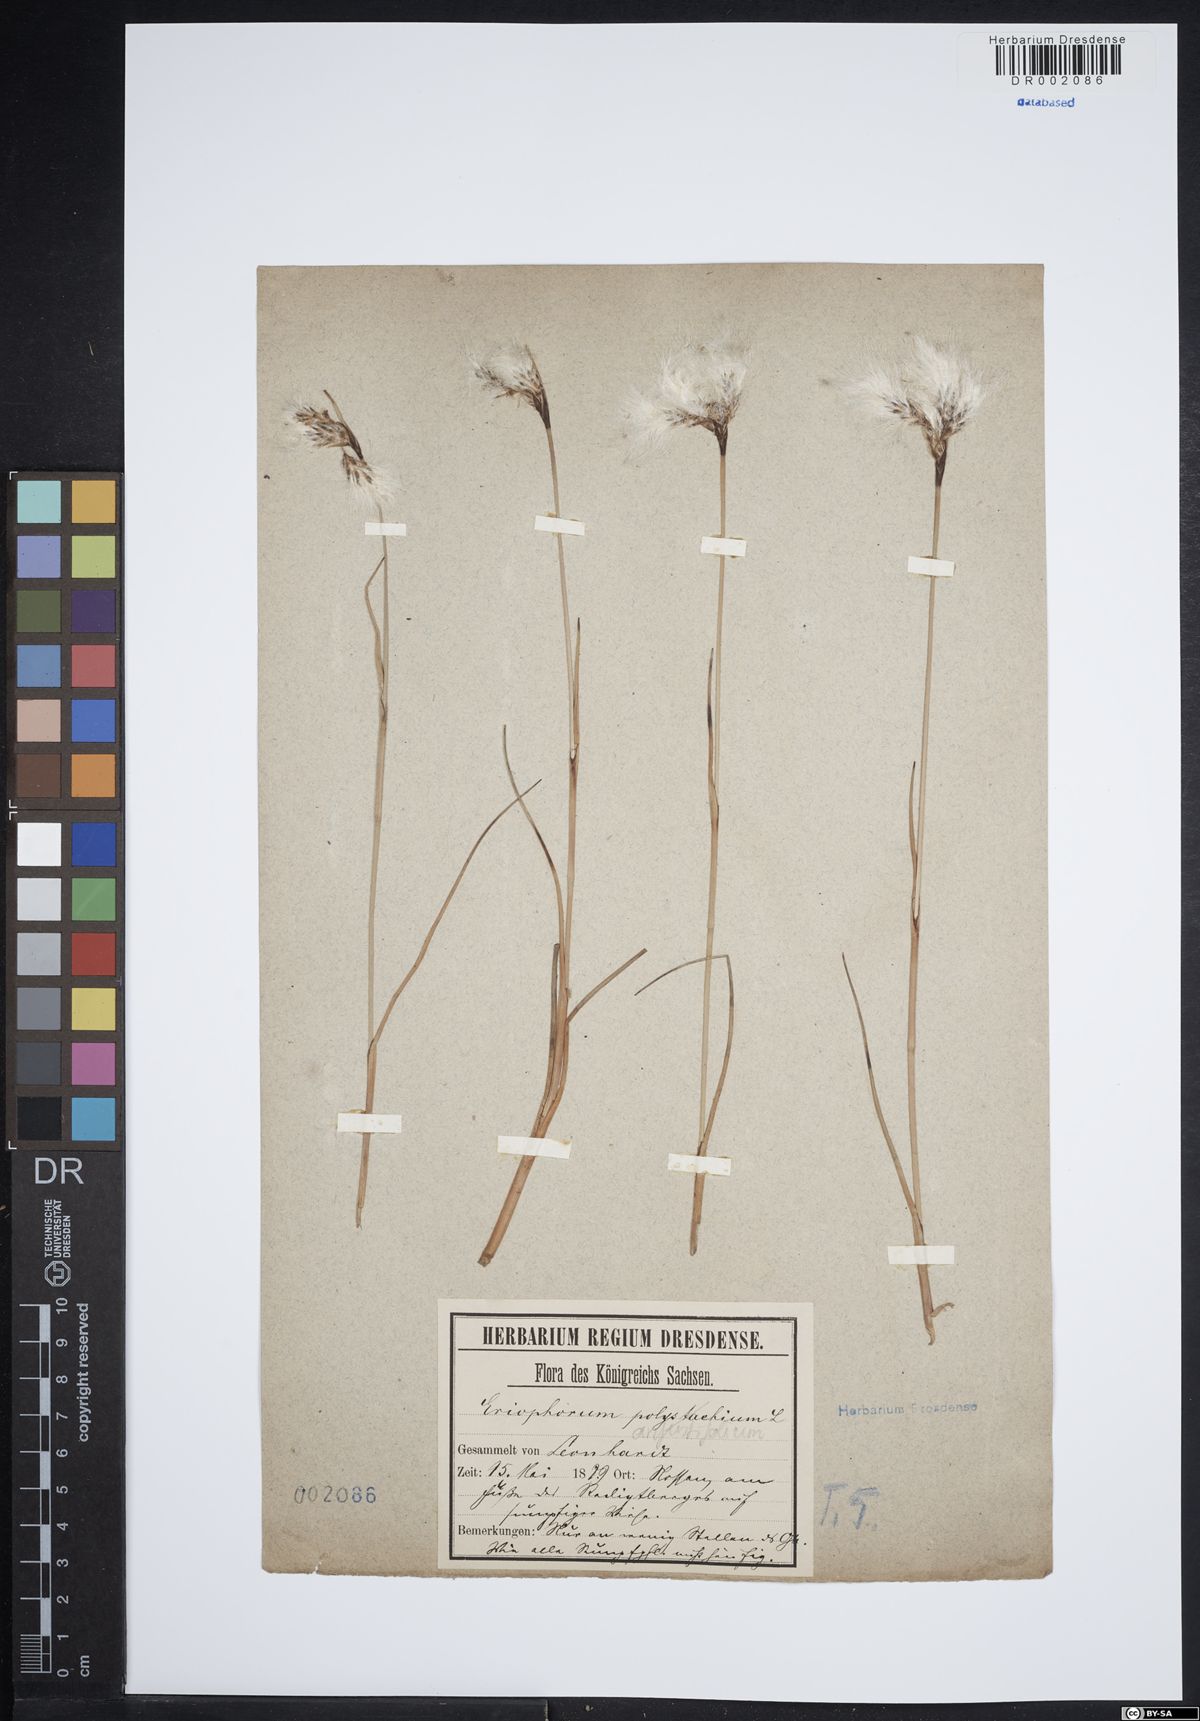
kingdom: Plantae
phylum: Tracheophyta
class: Liliopsida
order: Poales
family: Cyperaceae
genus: Eriophorum
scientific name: Eriophorum angustifolium
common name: Common cottongrass
